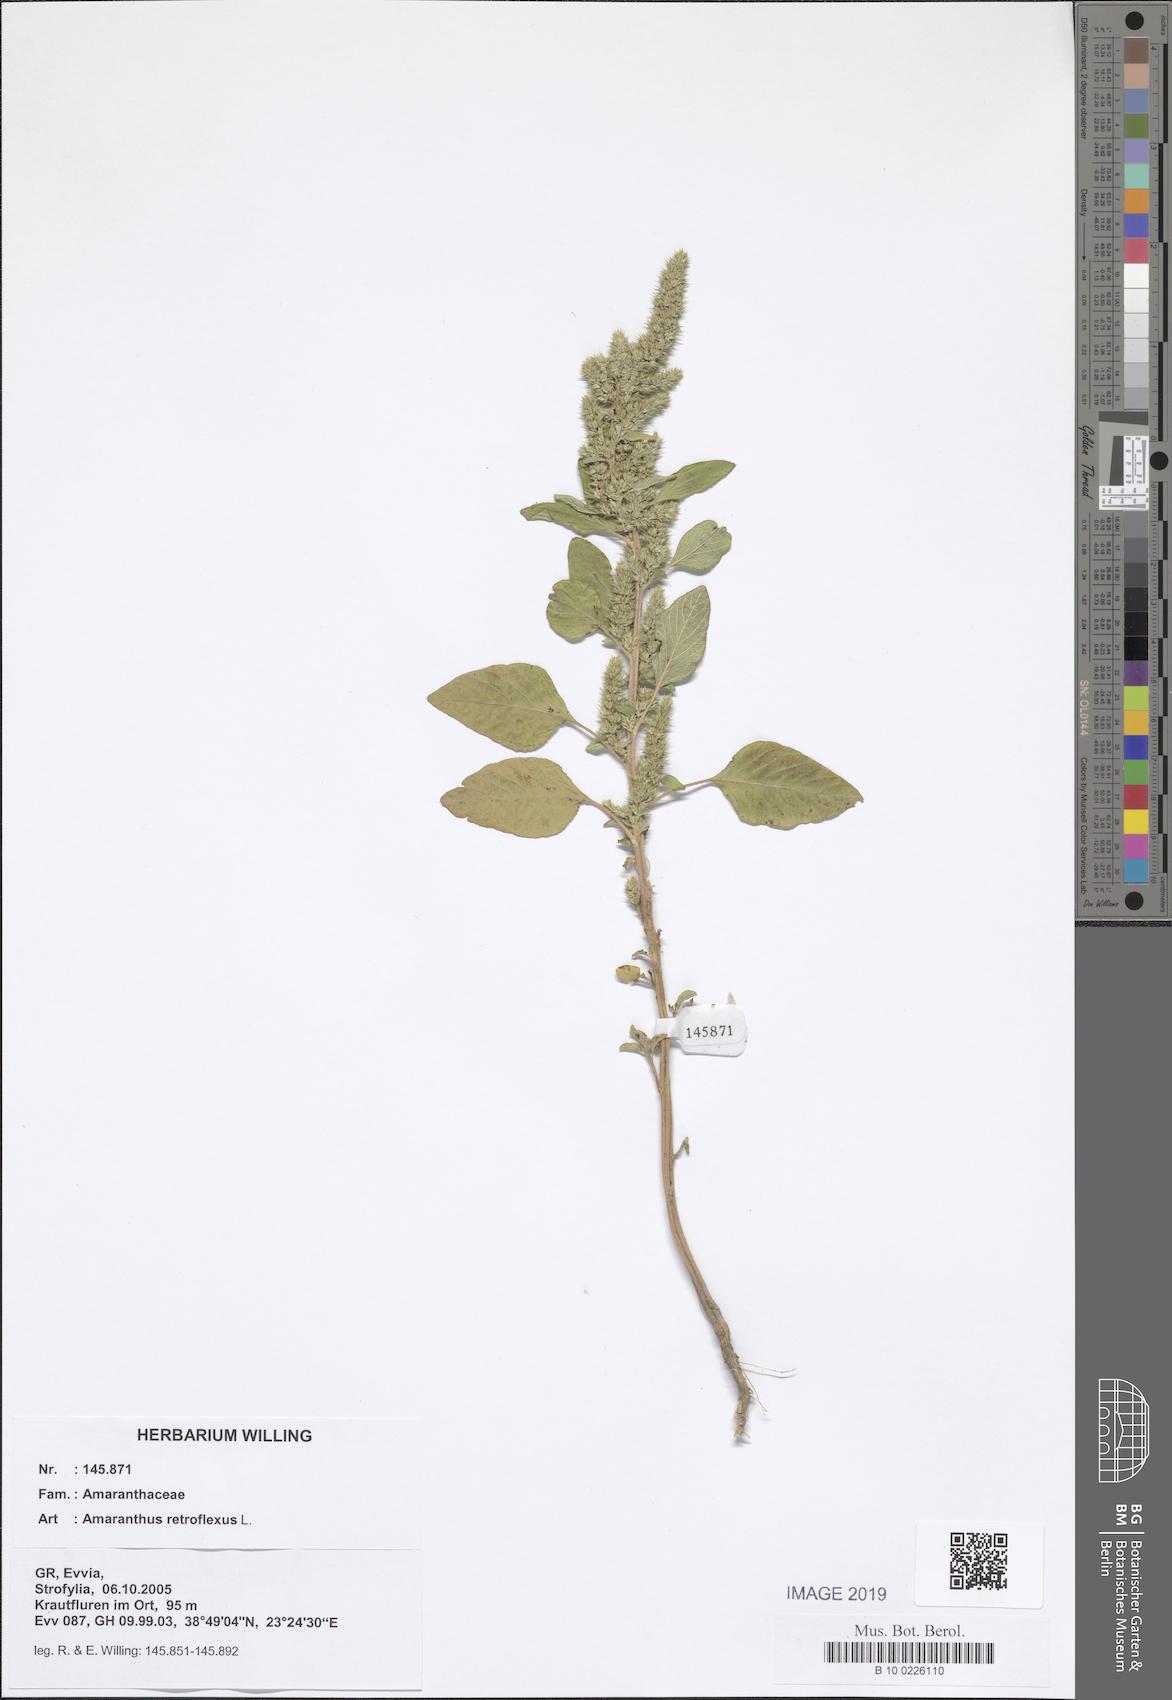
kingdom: Plantae
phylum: Tracheophyta
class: Magnoliopsida
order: Caryophyllales
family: Amaranthaceae
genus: Amaranthus
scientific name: Amaranthus retroflexus
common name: Redroot amaranth
